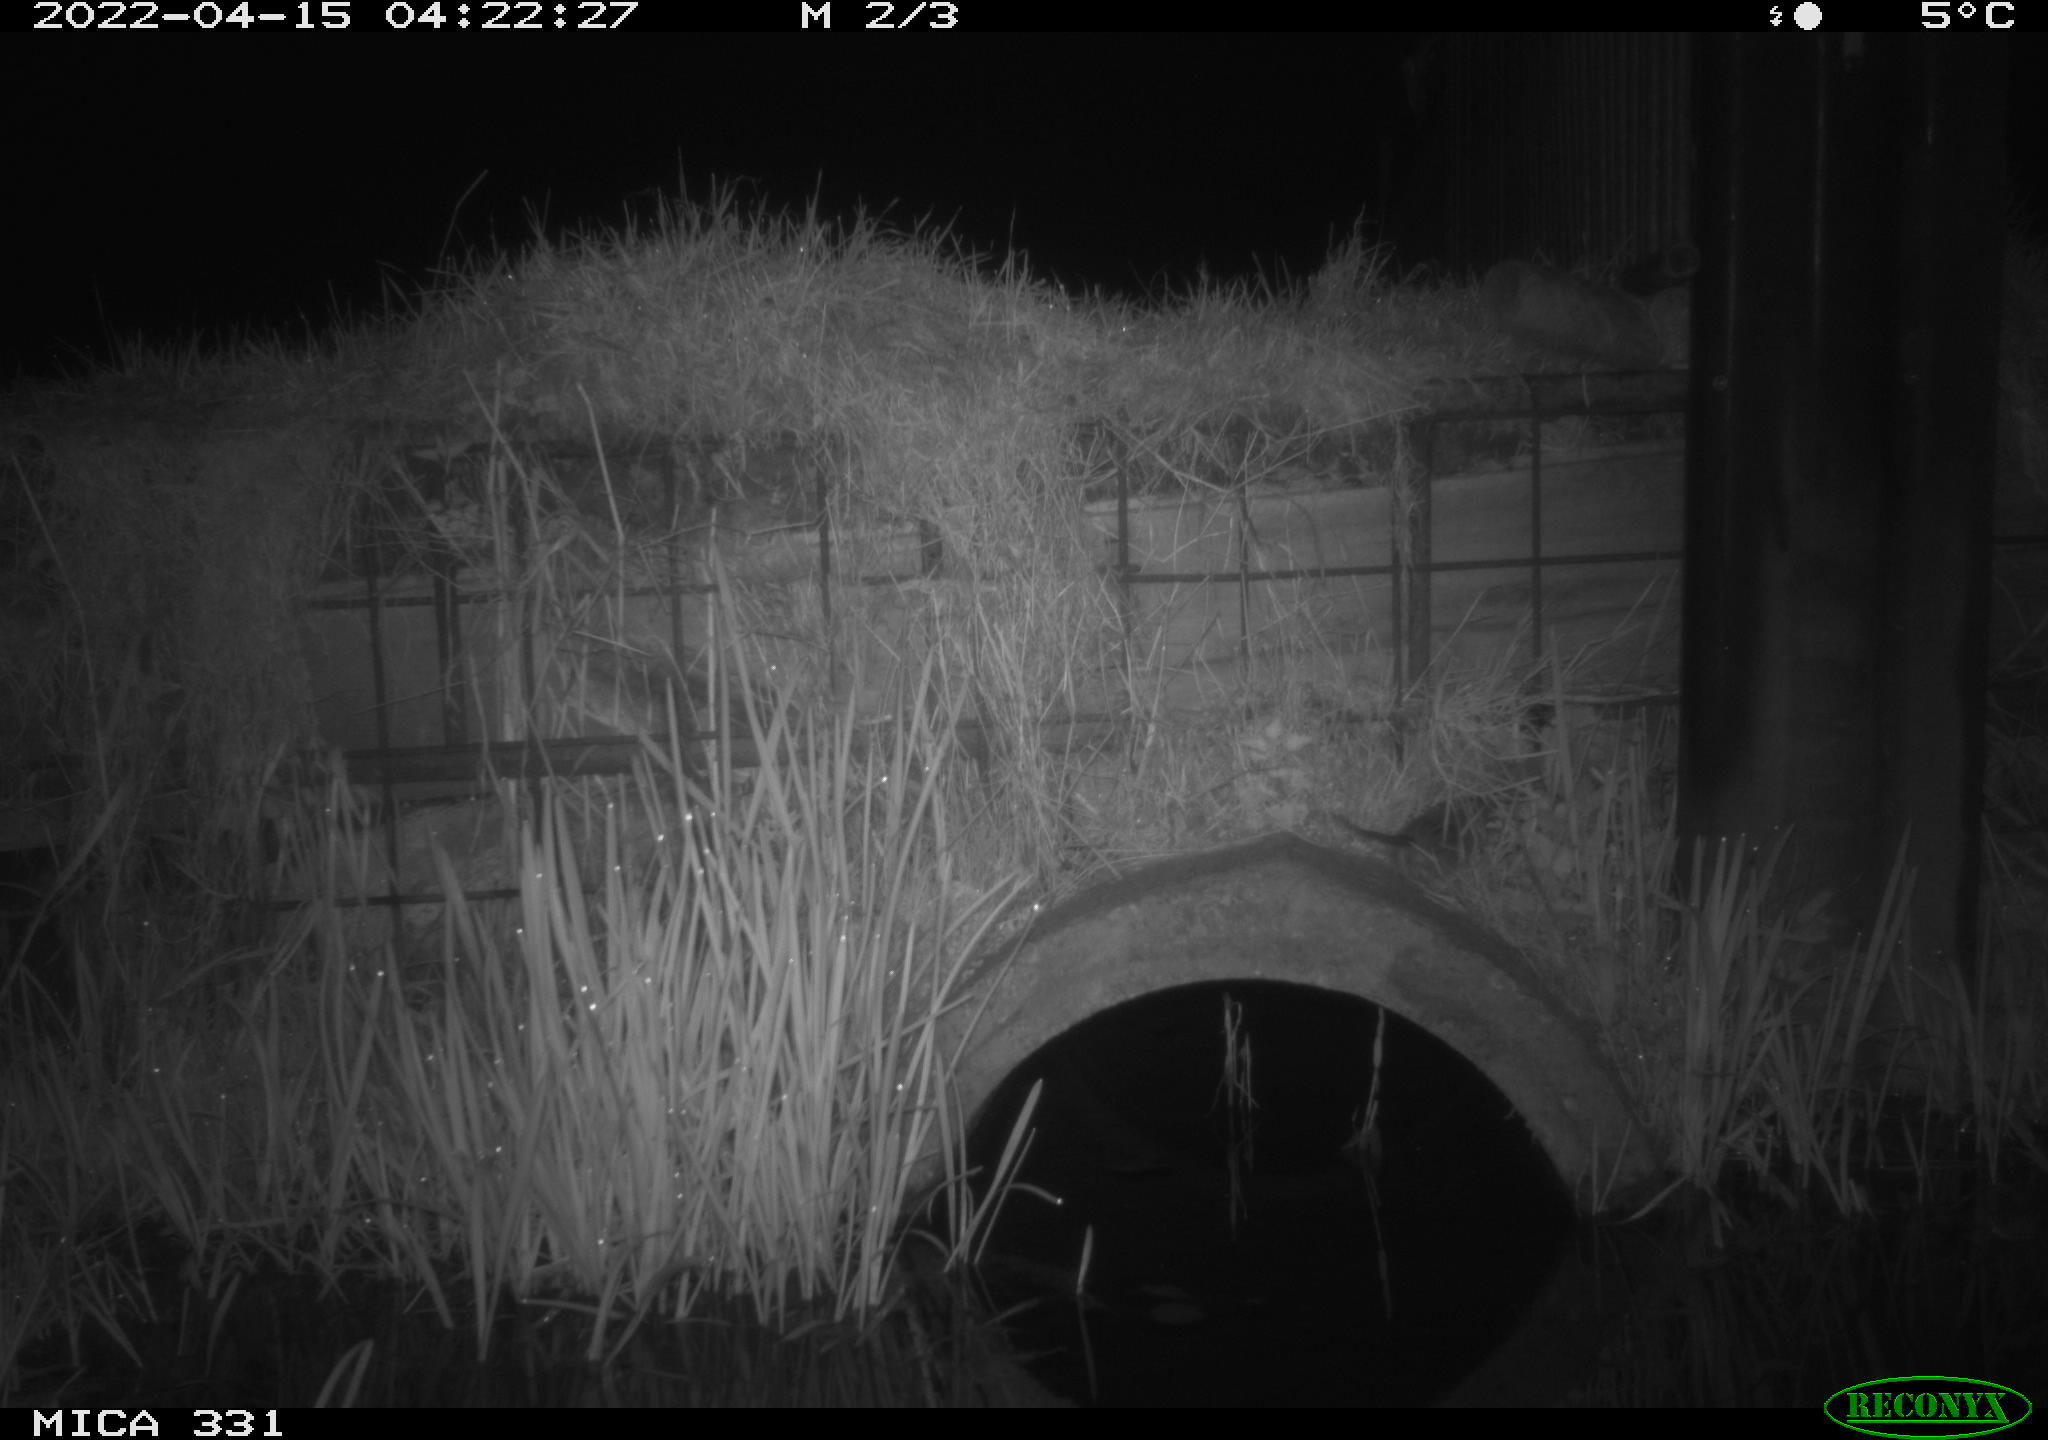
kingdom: Animalia
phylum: Chordata
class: Mammalia
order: Rodentia
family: Muridae
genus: Rattus
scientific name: Rattus norvegicus
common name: Brown rat
